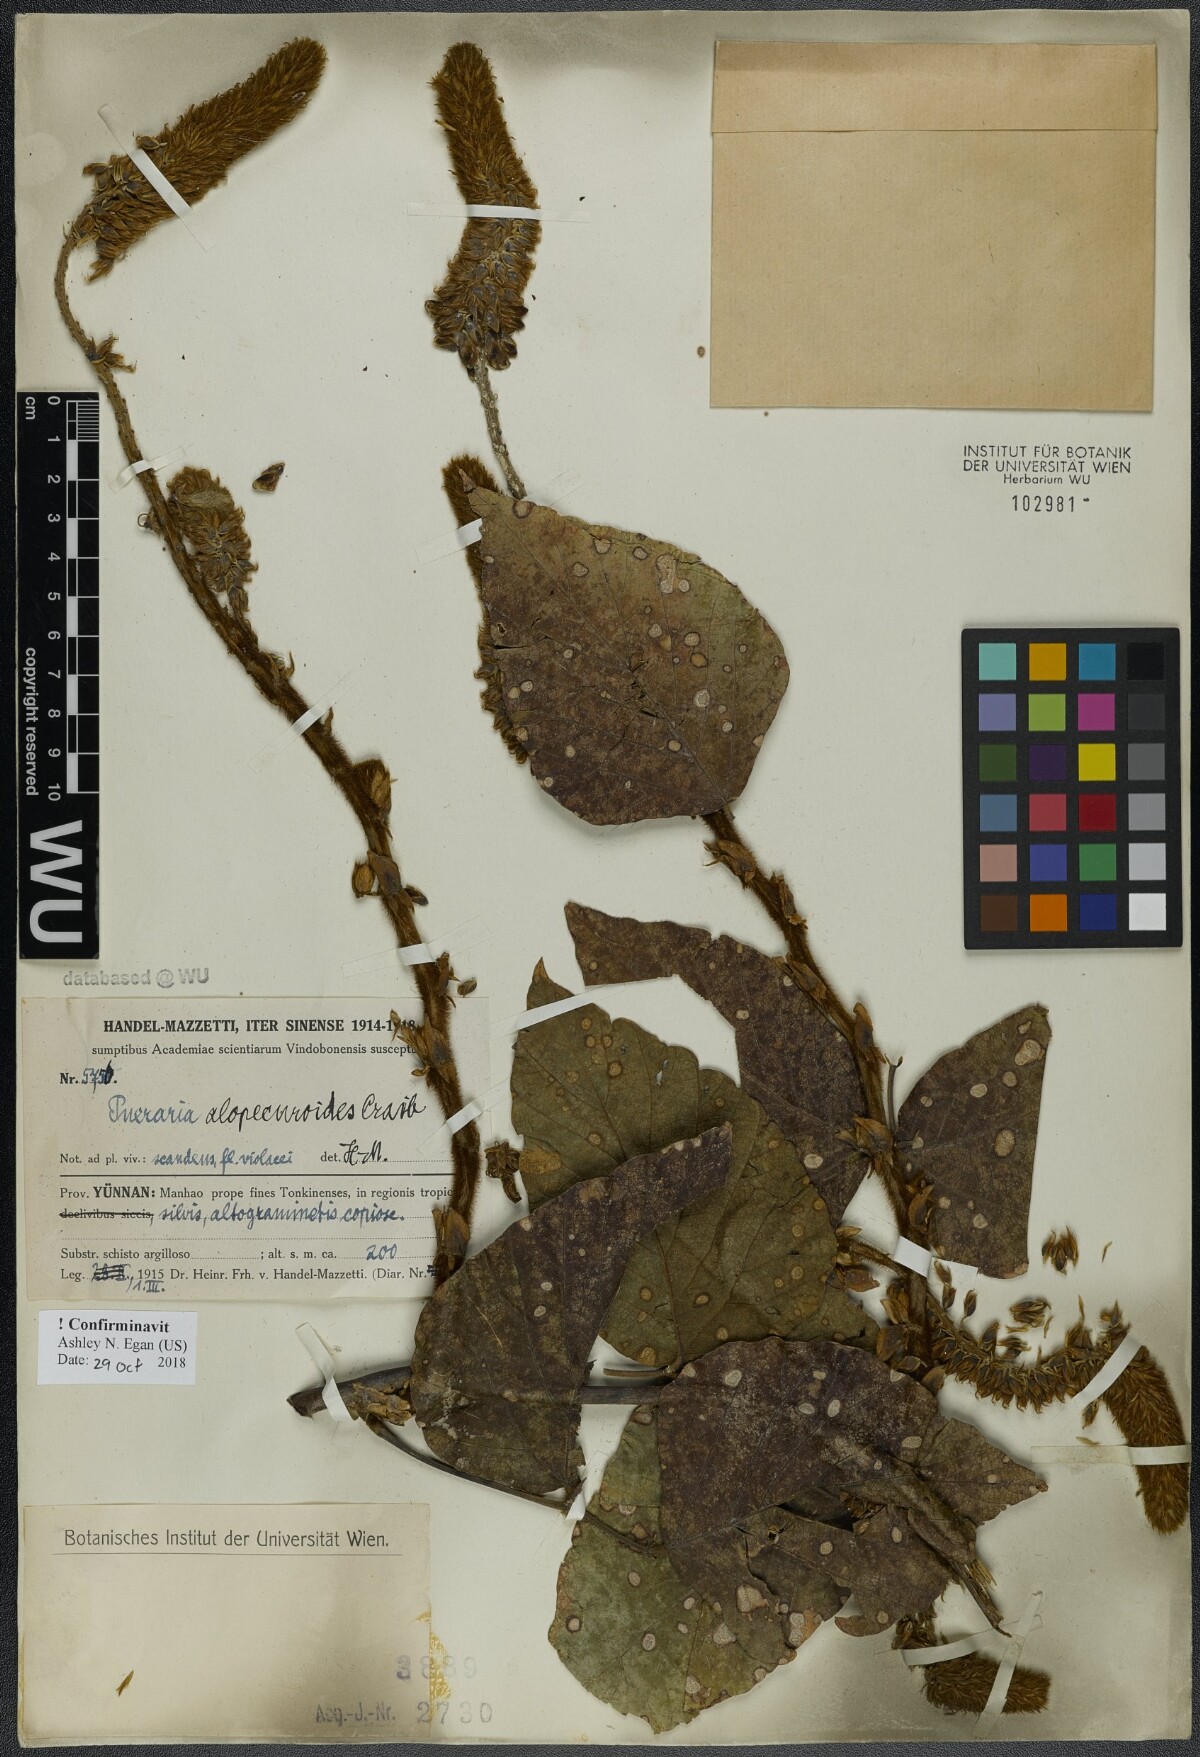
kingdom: Plantae
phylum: Tracheophyta
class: Magnoliopsida
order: Fabales
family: Fabaceae
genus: Pueraria
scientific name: Pueraria alopecuroides
